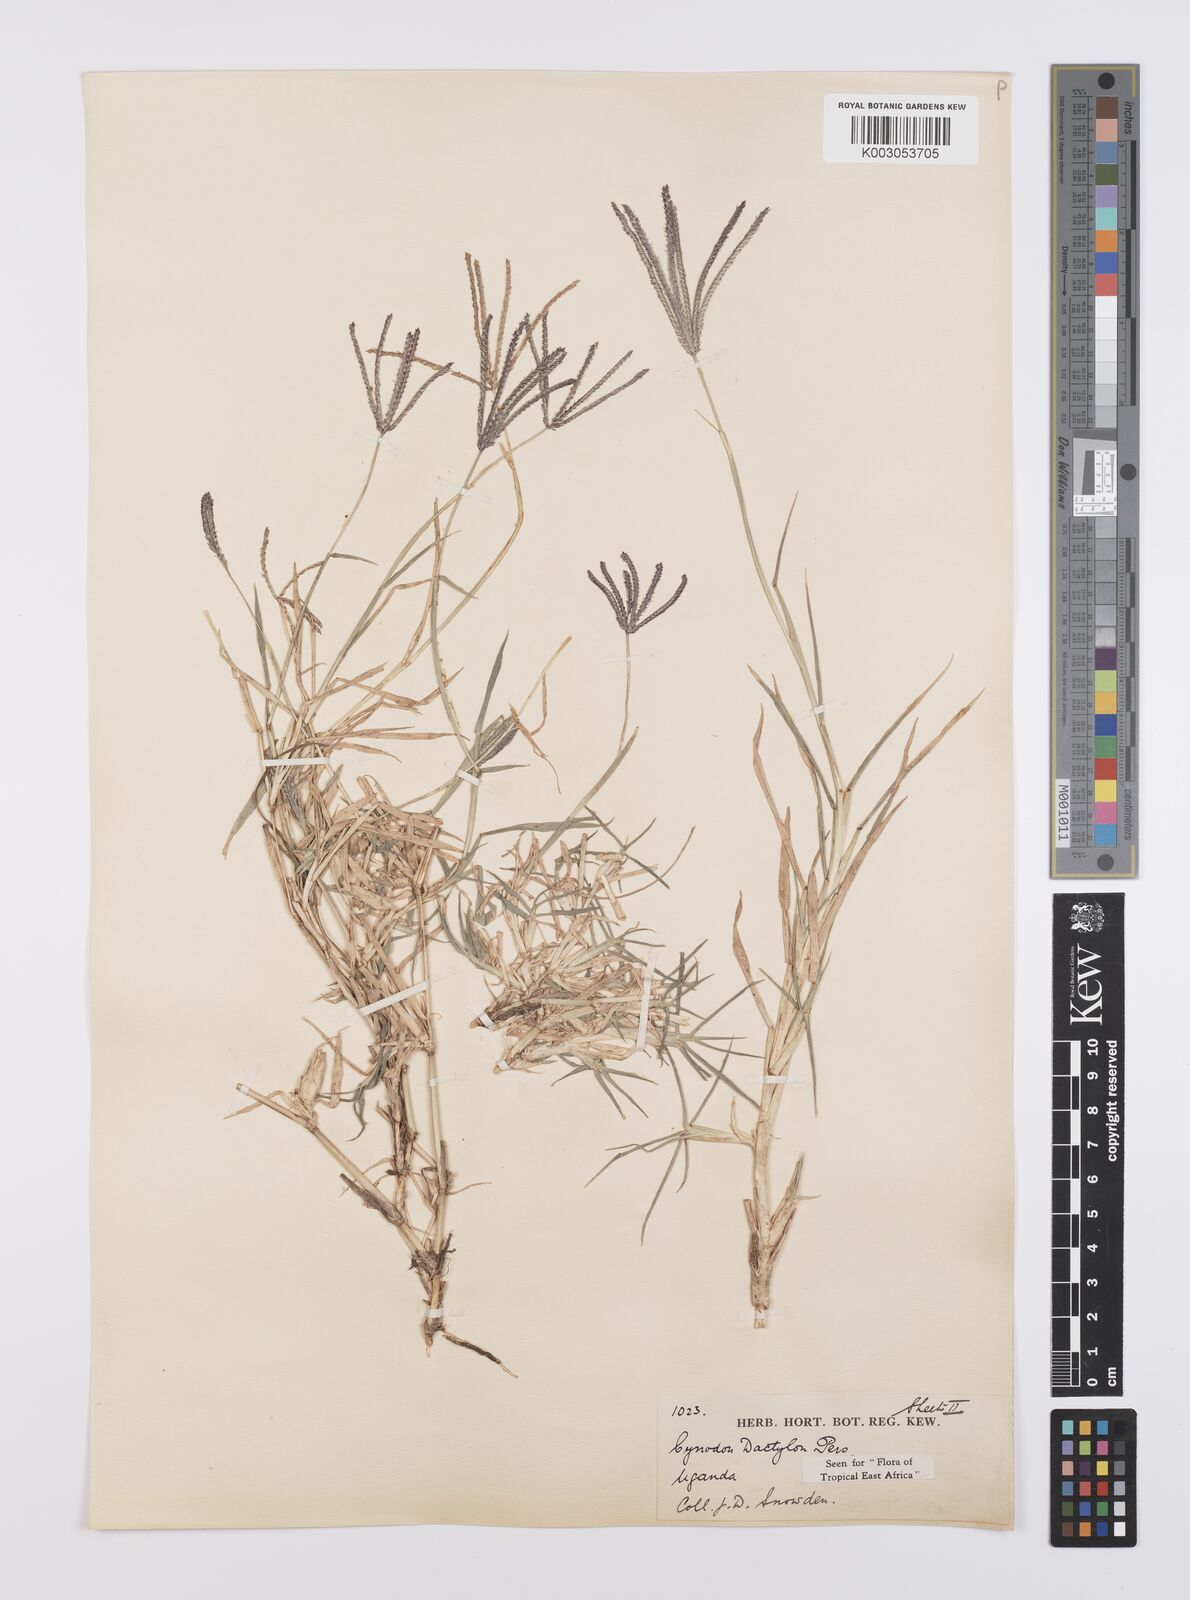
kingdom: Plantae
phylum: Tracheophyta
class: Liliopsida
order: Poales
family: Poaceae
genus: Cynodon
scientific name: Cynodon dactylon
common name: Bermuda grass
